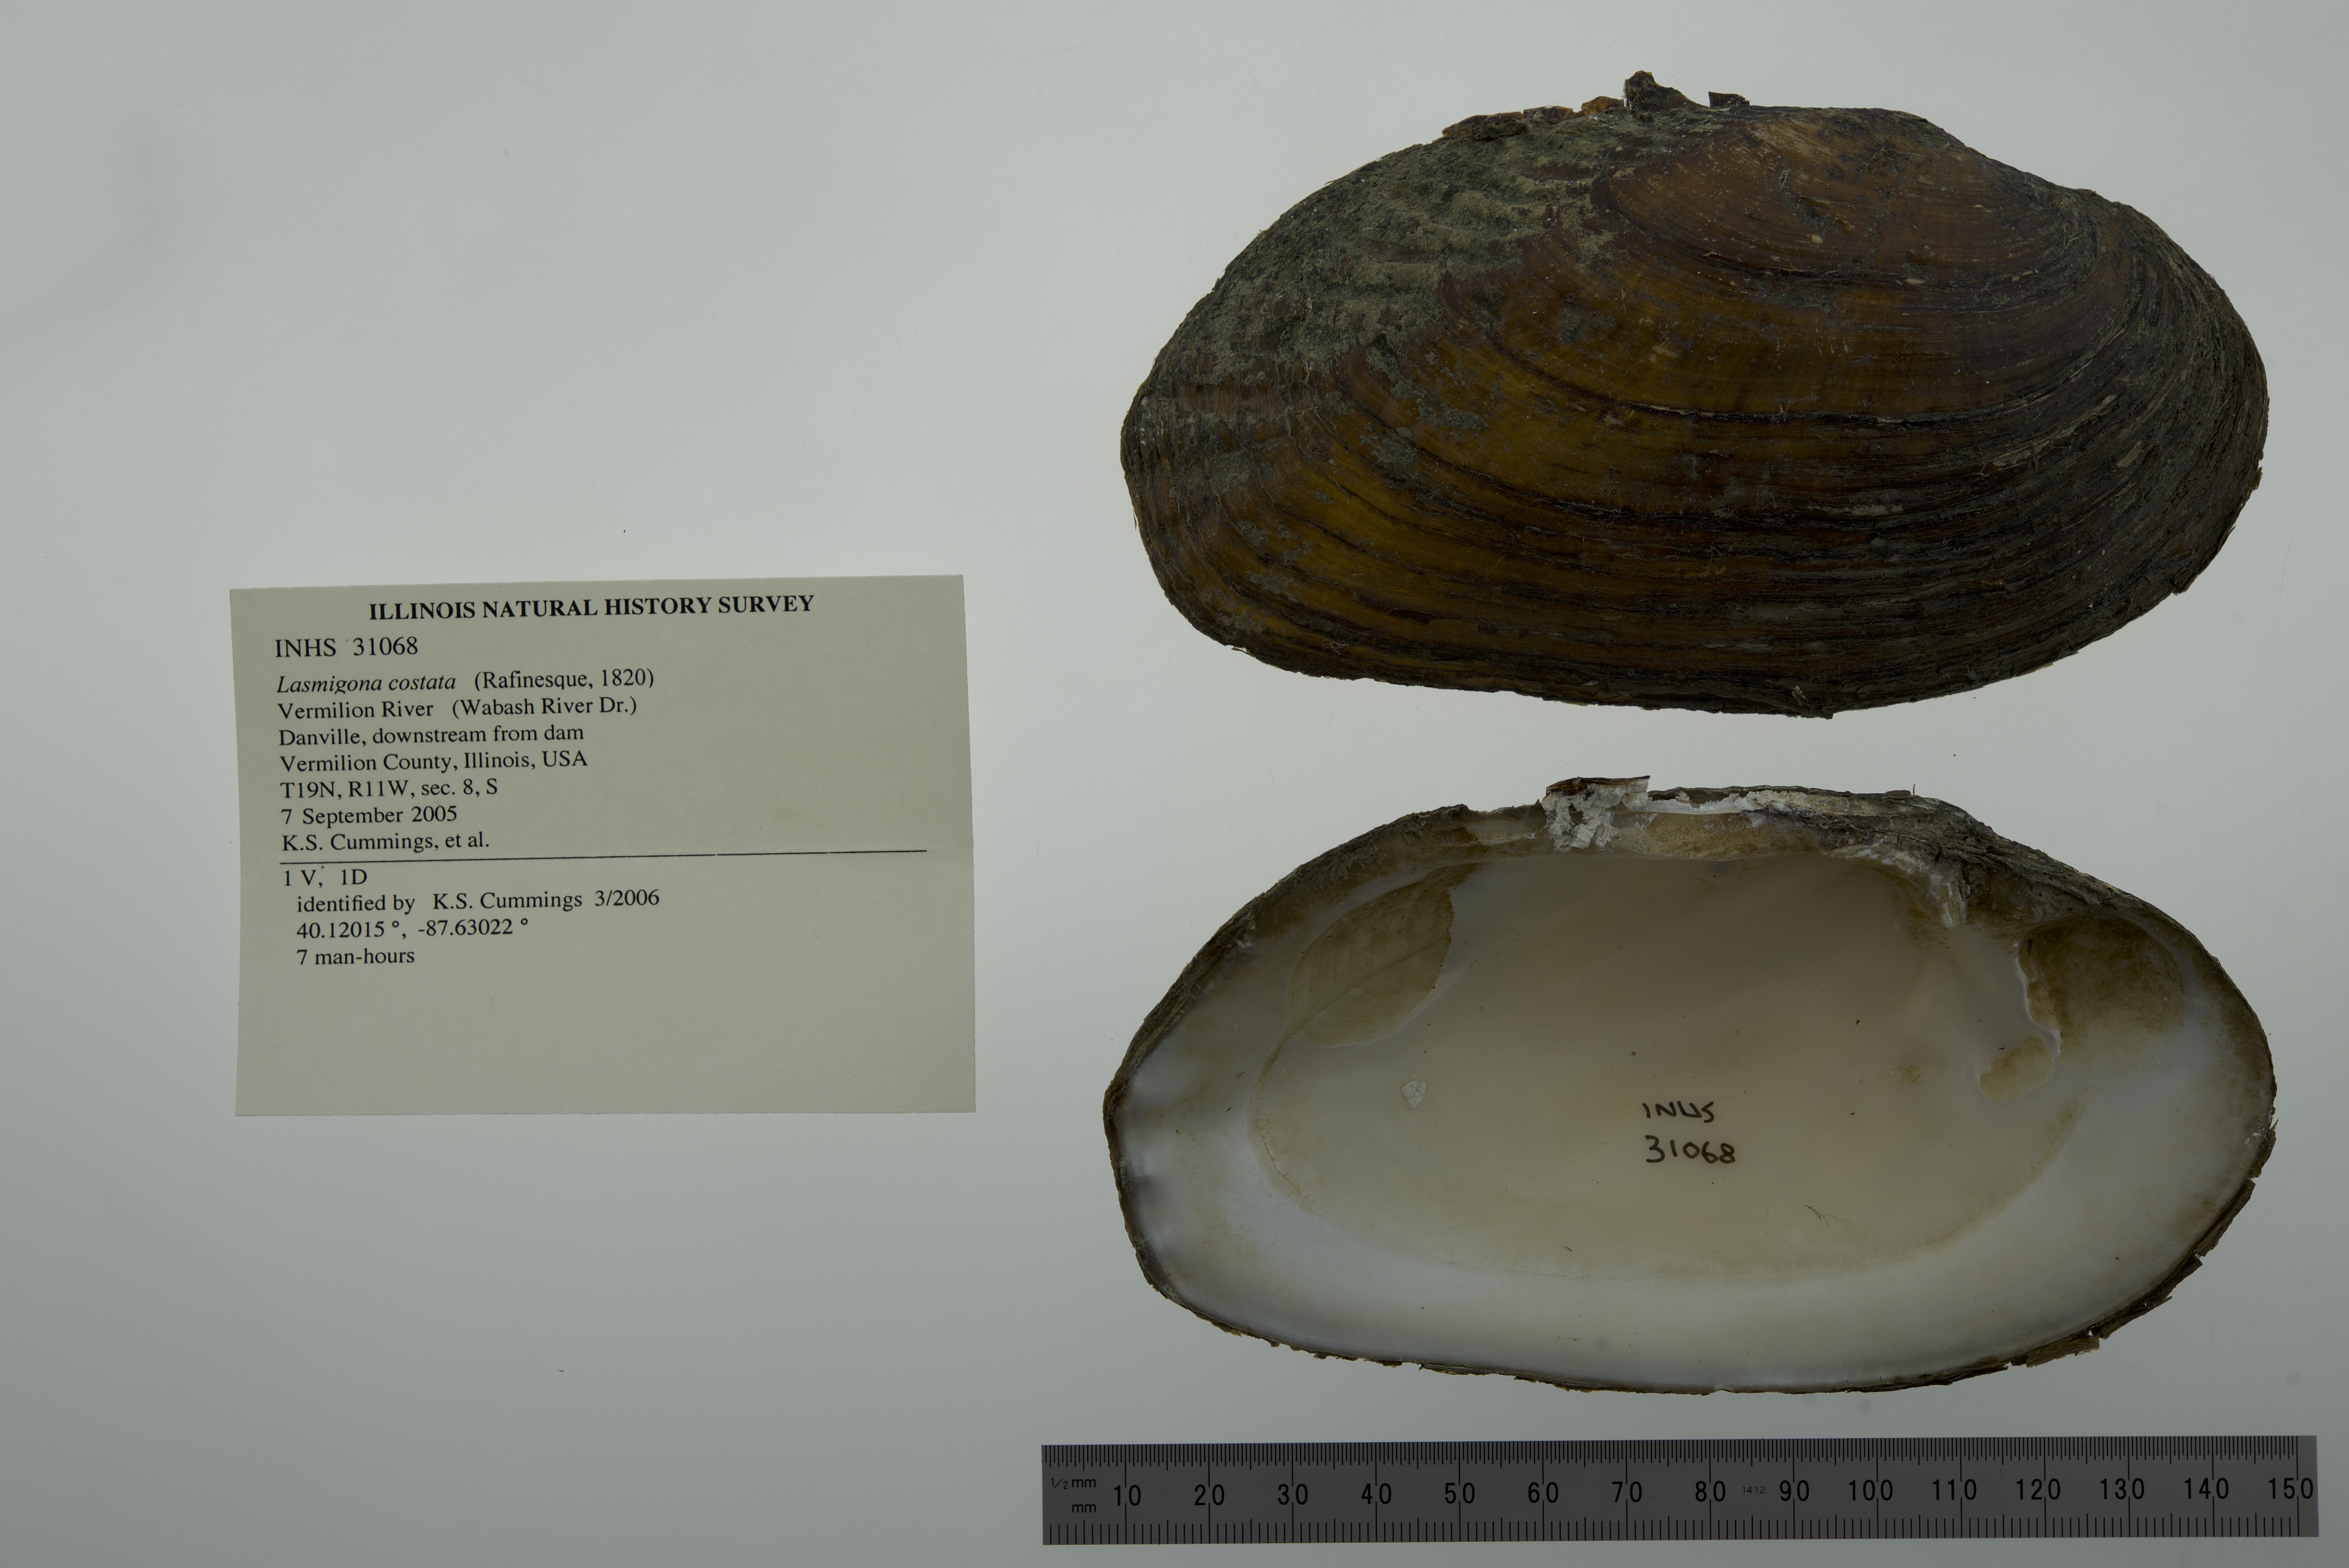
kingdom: Animalia
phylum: Mollusca
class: Bivalvia
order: Unionida
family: Unionidae
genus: Lasmigona
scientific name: Lasmigona costata
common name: Flutedshell
